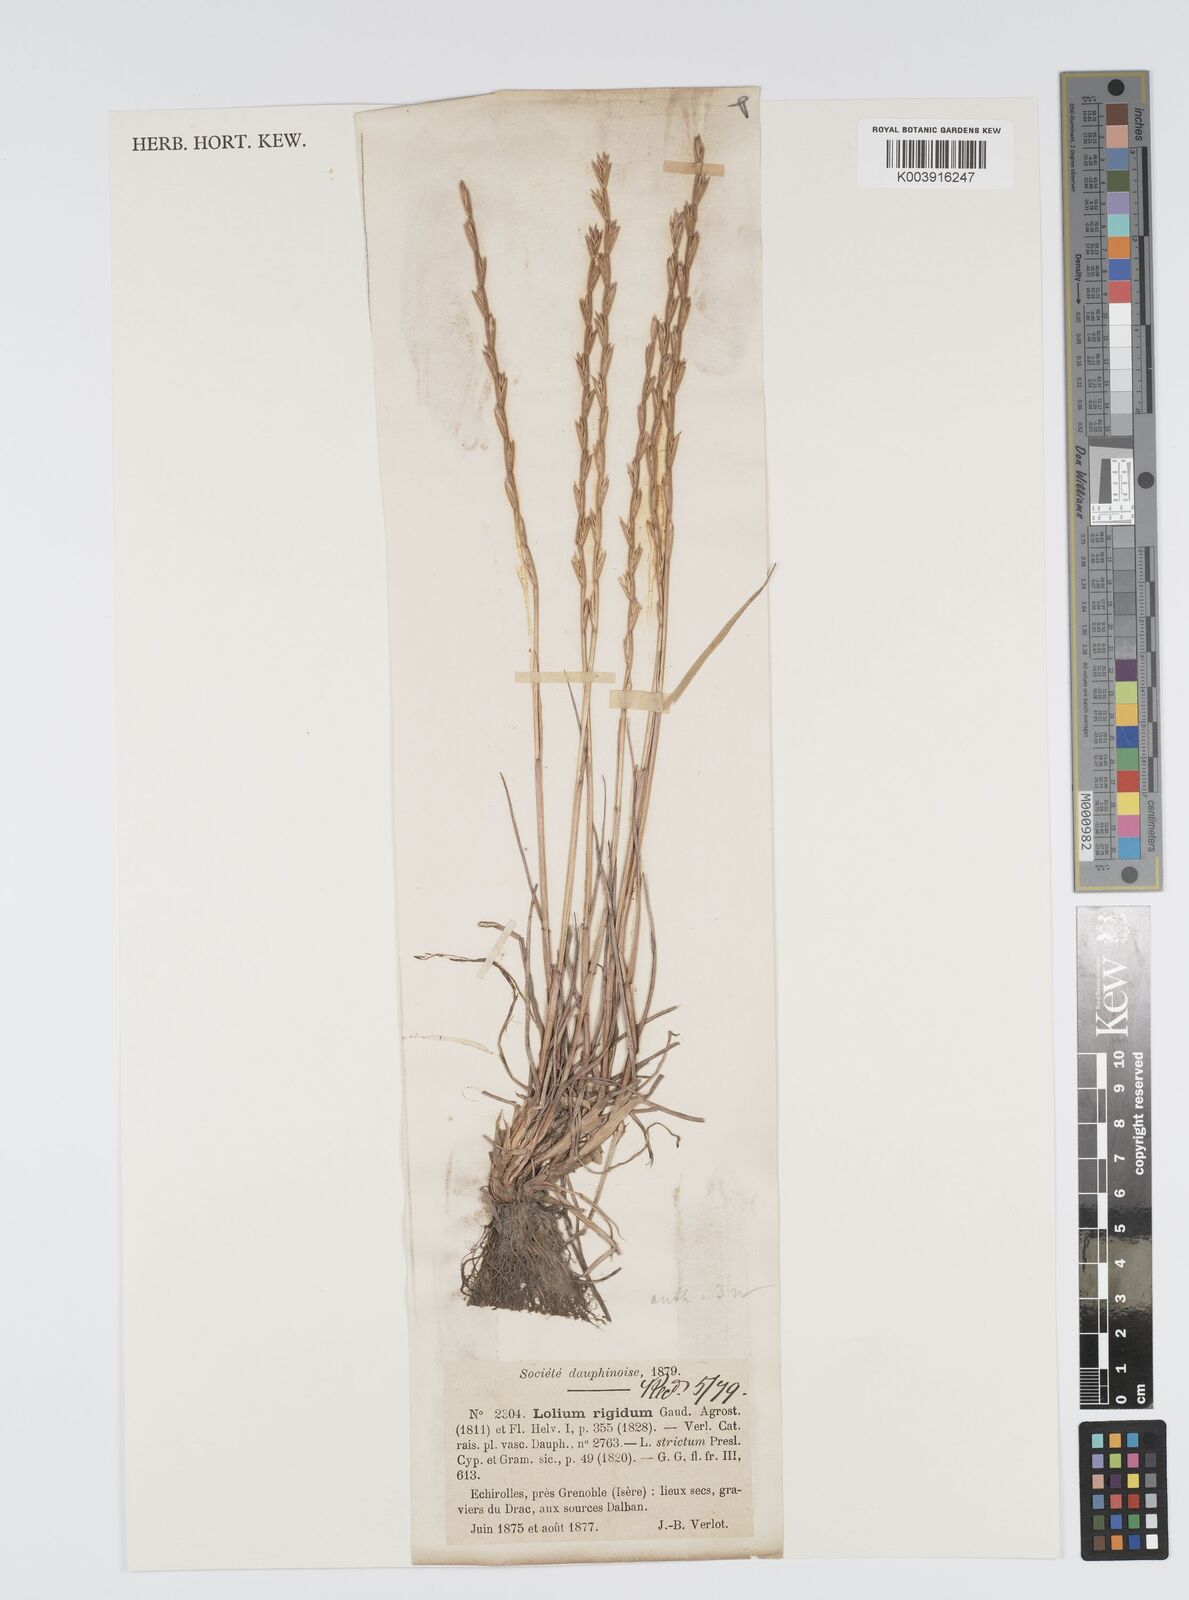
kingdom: Plantae
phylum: Tracheophyta
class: Liliopsida
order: Poales
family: Poaceae
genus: Lolium
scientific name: Lolium rigidum
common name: Wimmera ryegrass
